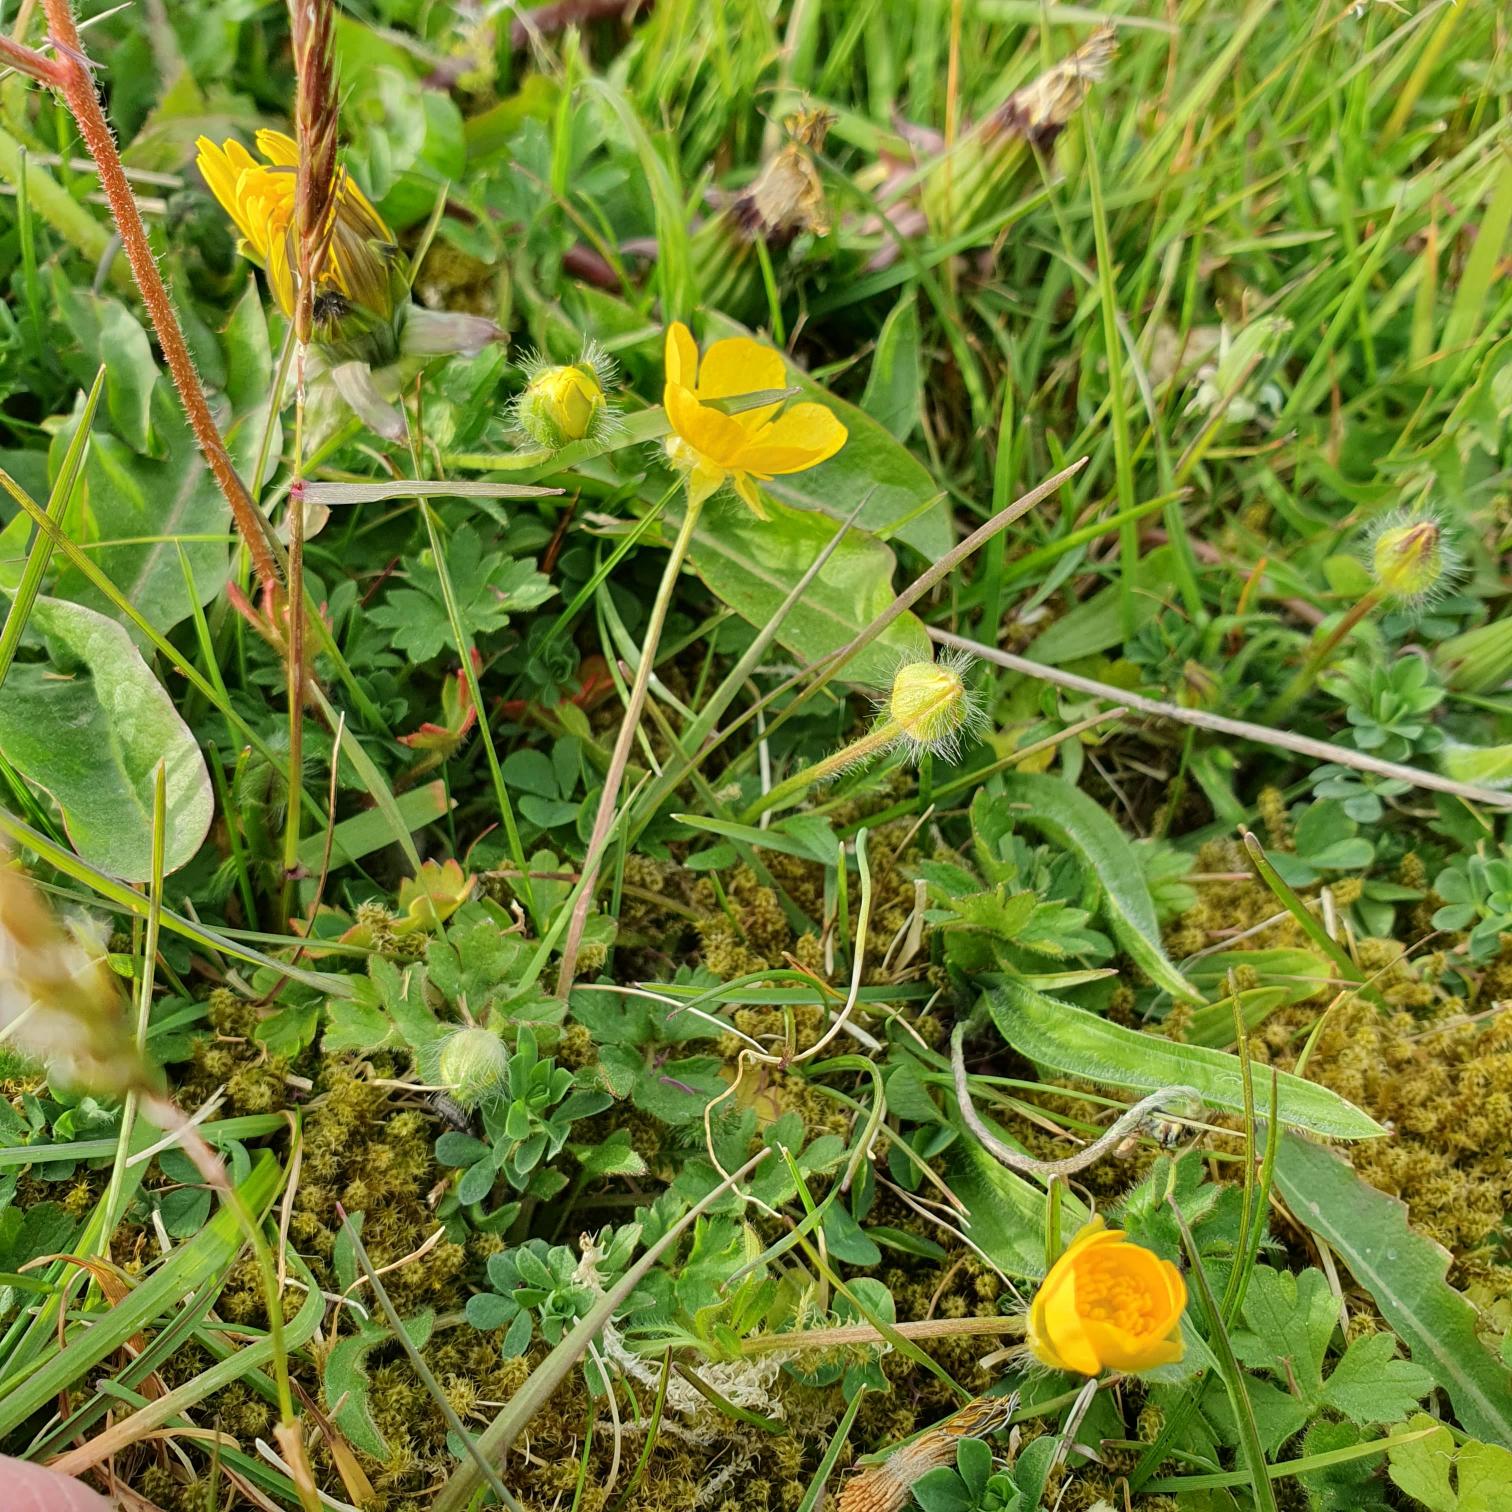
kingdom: Plantae
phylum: Tracheophyta
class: Magnoliopsida
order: Ranunculales
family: Ranunculaceae
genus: Ranunculus
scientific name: Ranunculus bulbosus
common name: Knold-ranunkel
